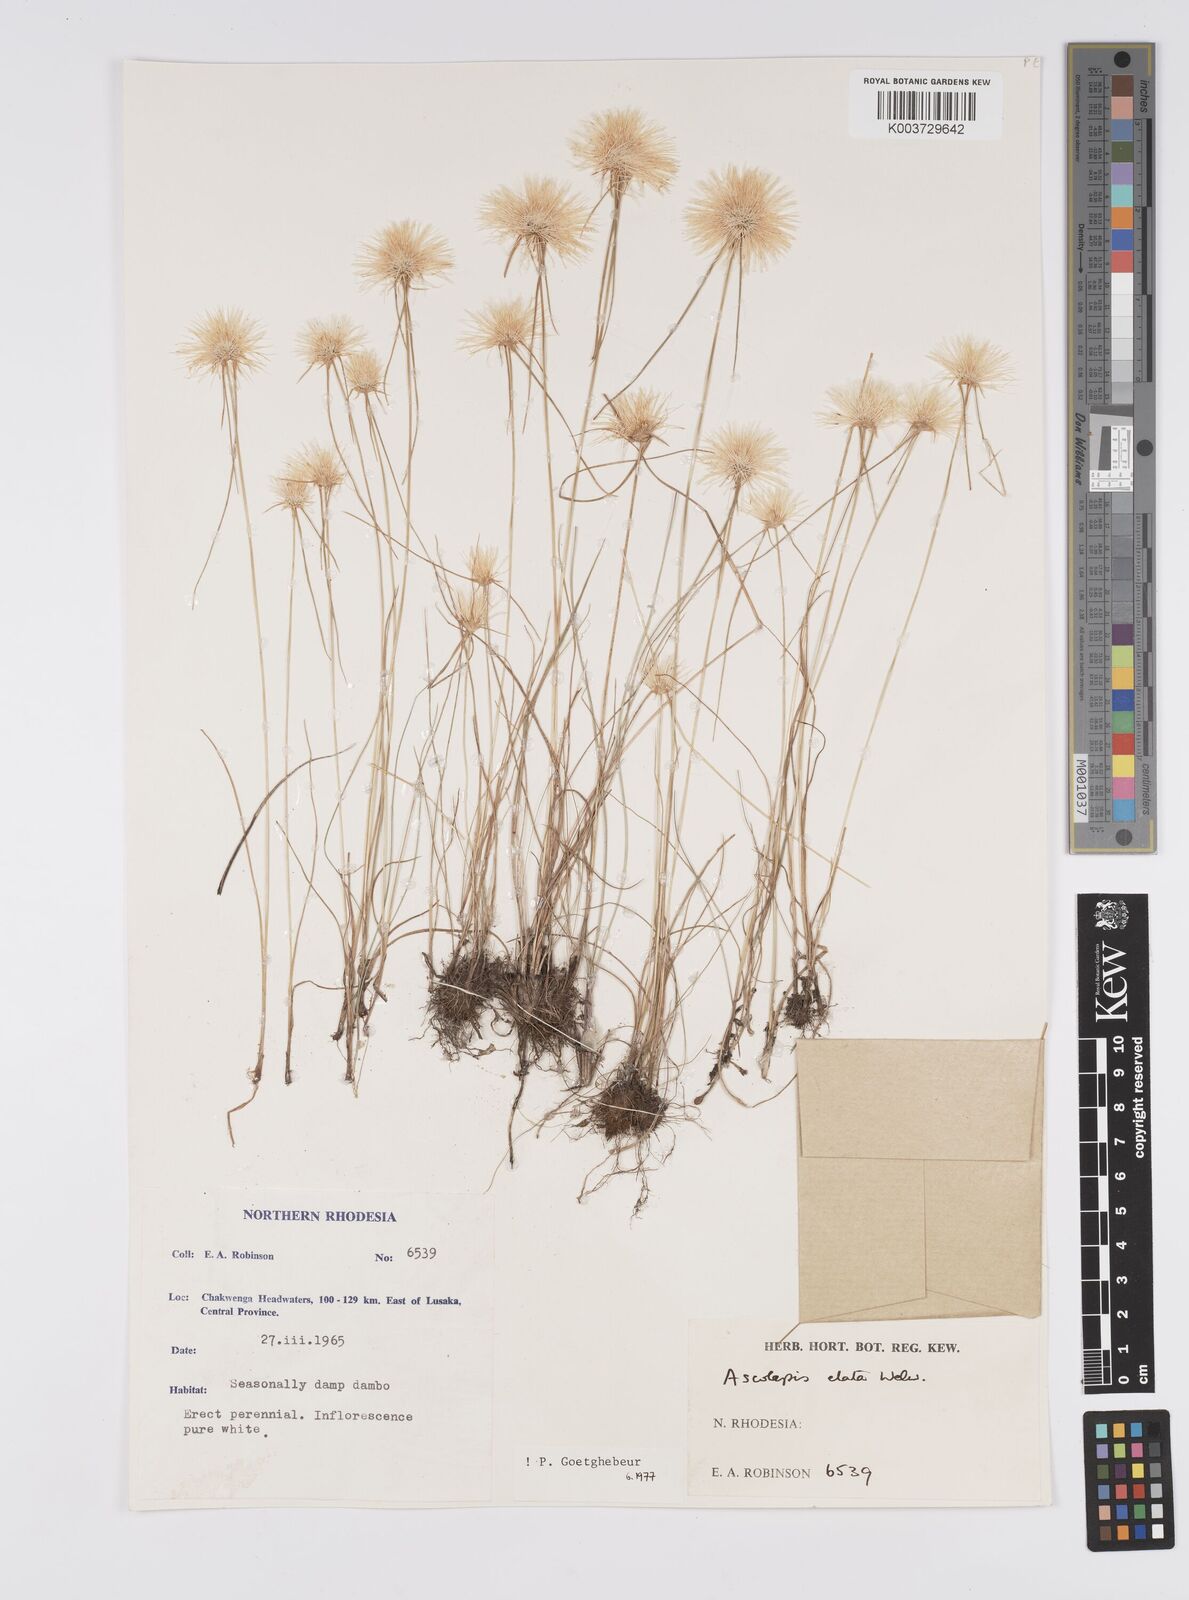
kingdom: Plantae
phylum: Tracheophyta
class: Liliopsida
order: Poales
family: Cyperaceae
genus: Cyperus
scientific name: Cyperus
